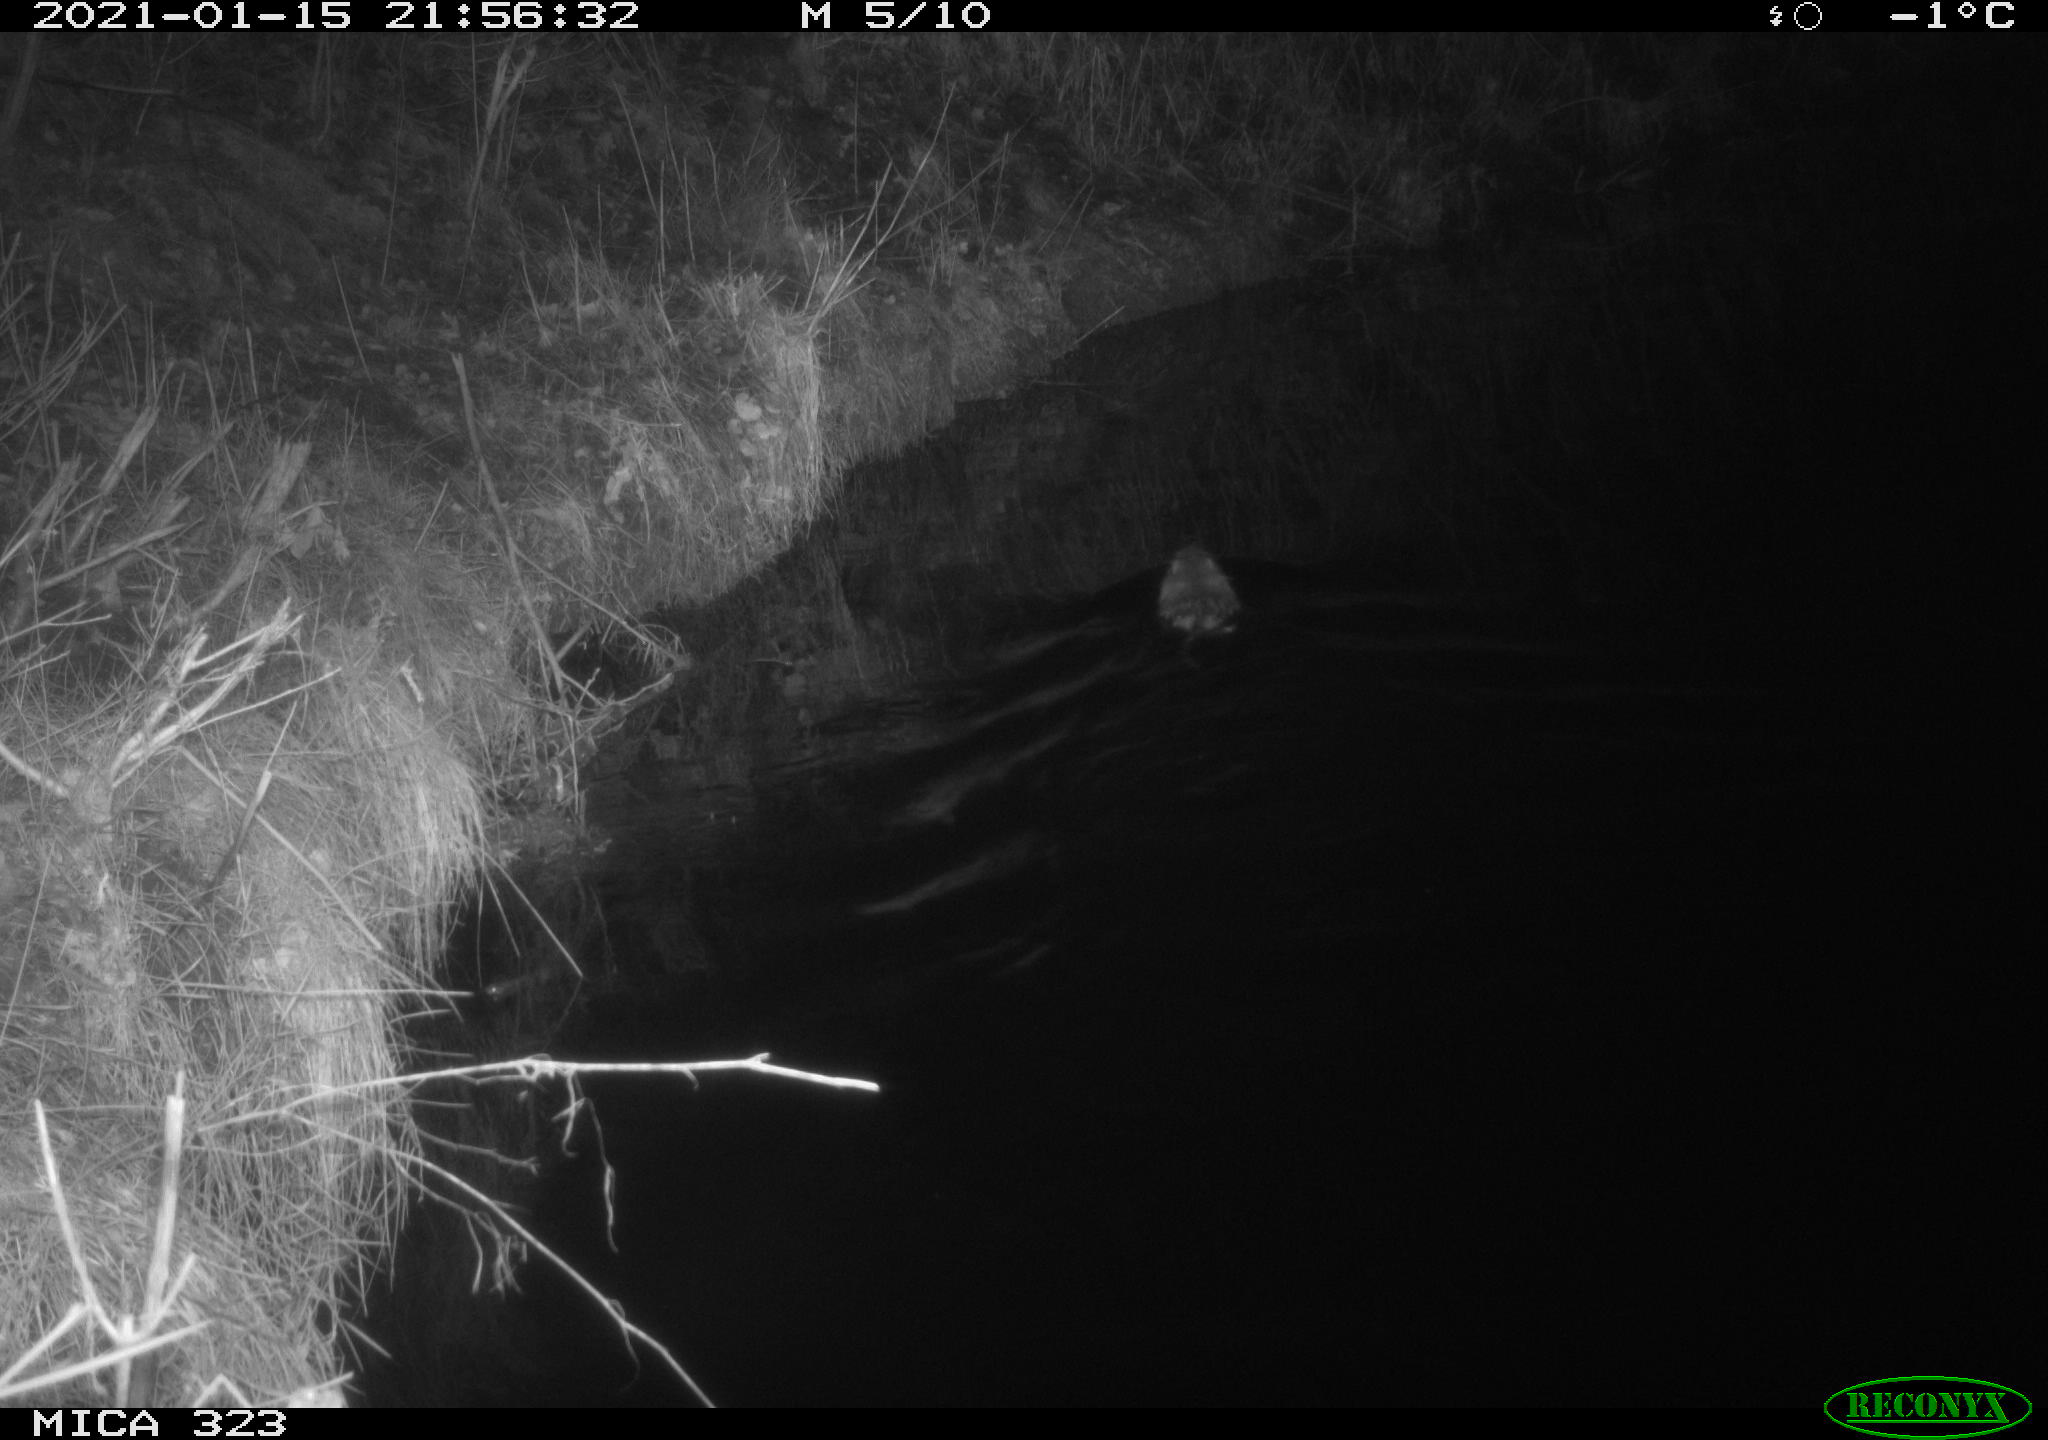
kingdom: Animalia
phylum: Chordata
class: Mammalia
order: Rodentia
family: Myocastoridae
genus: Myocastor
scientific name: Myocastor coypus
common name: Coypu
